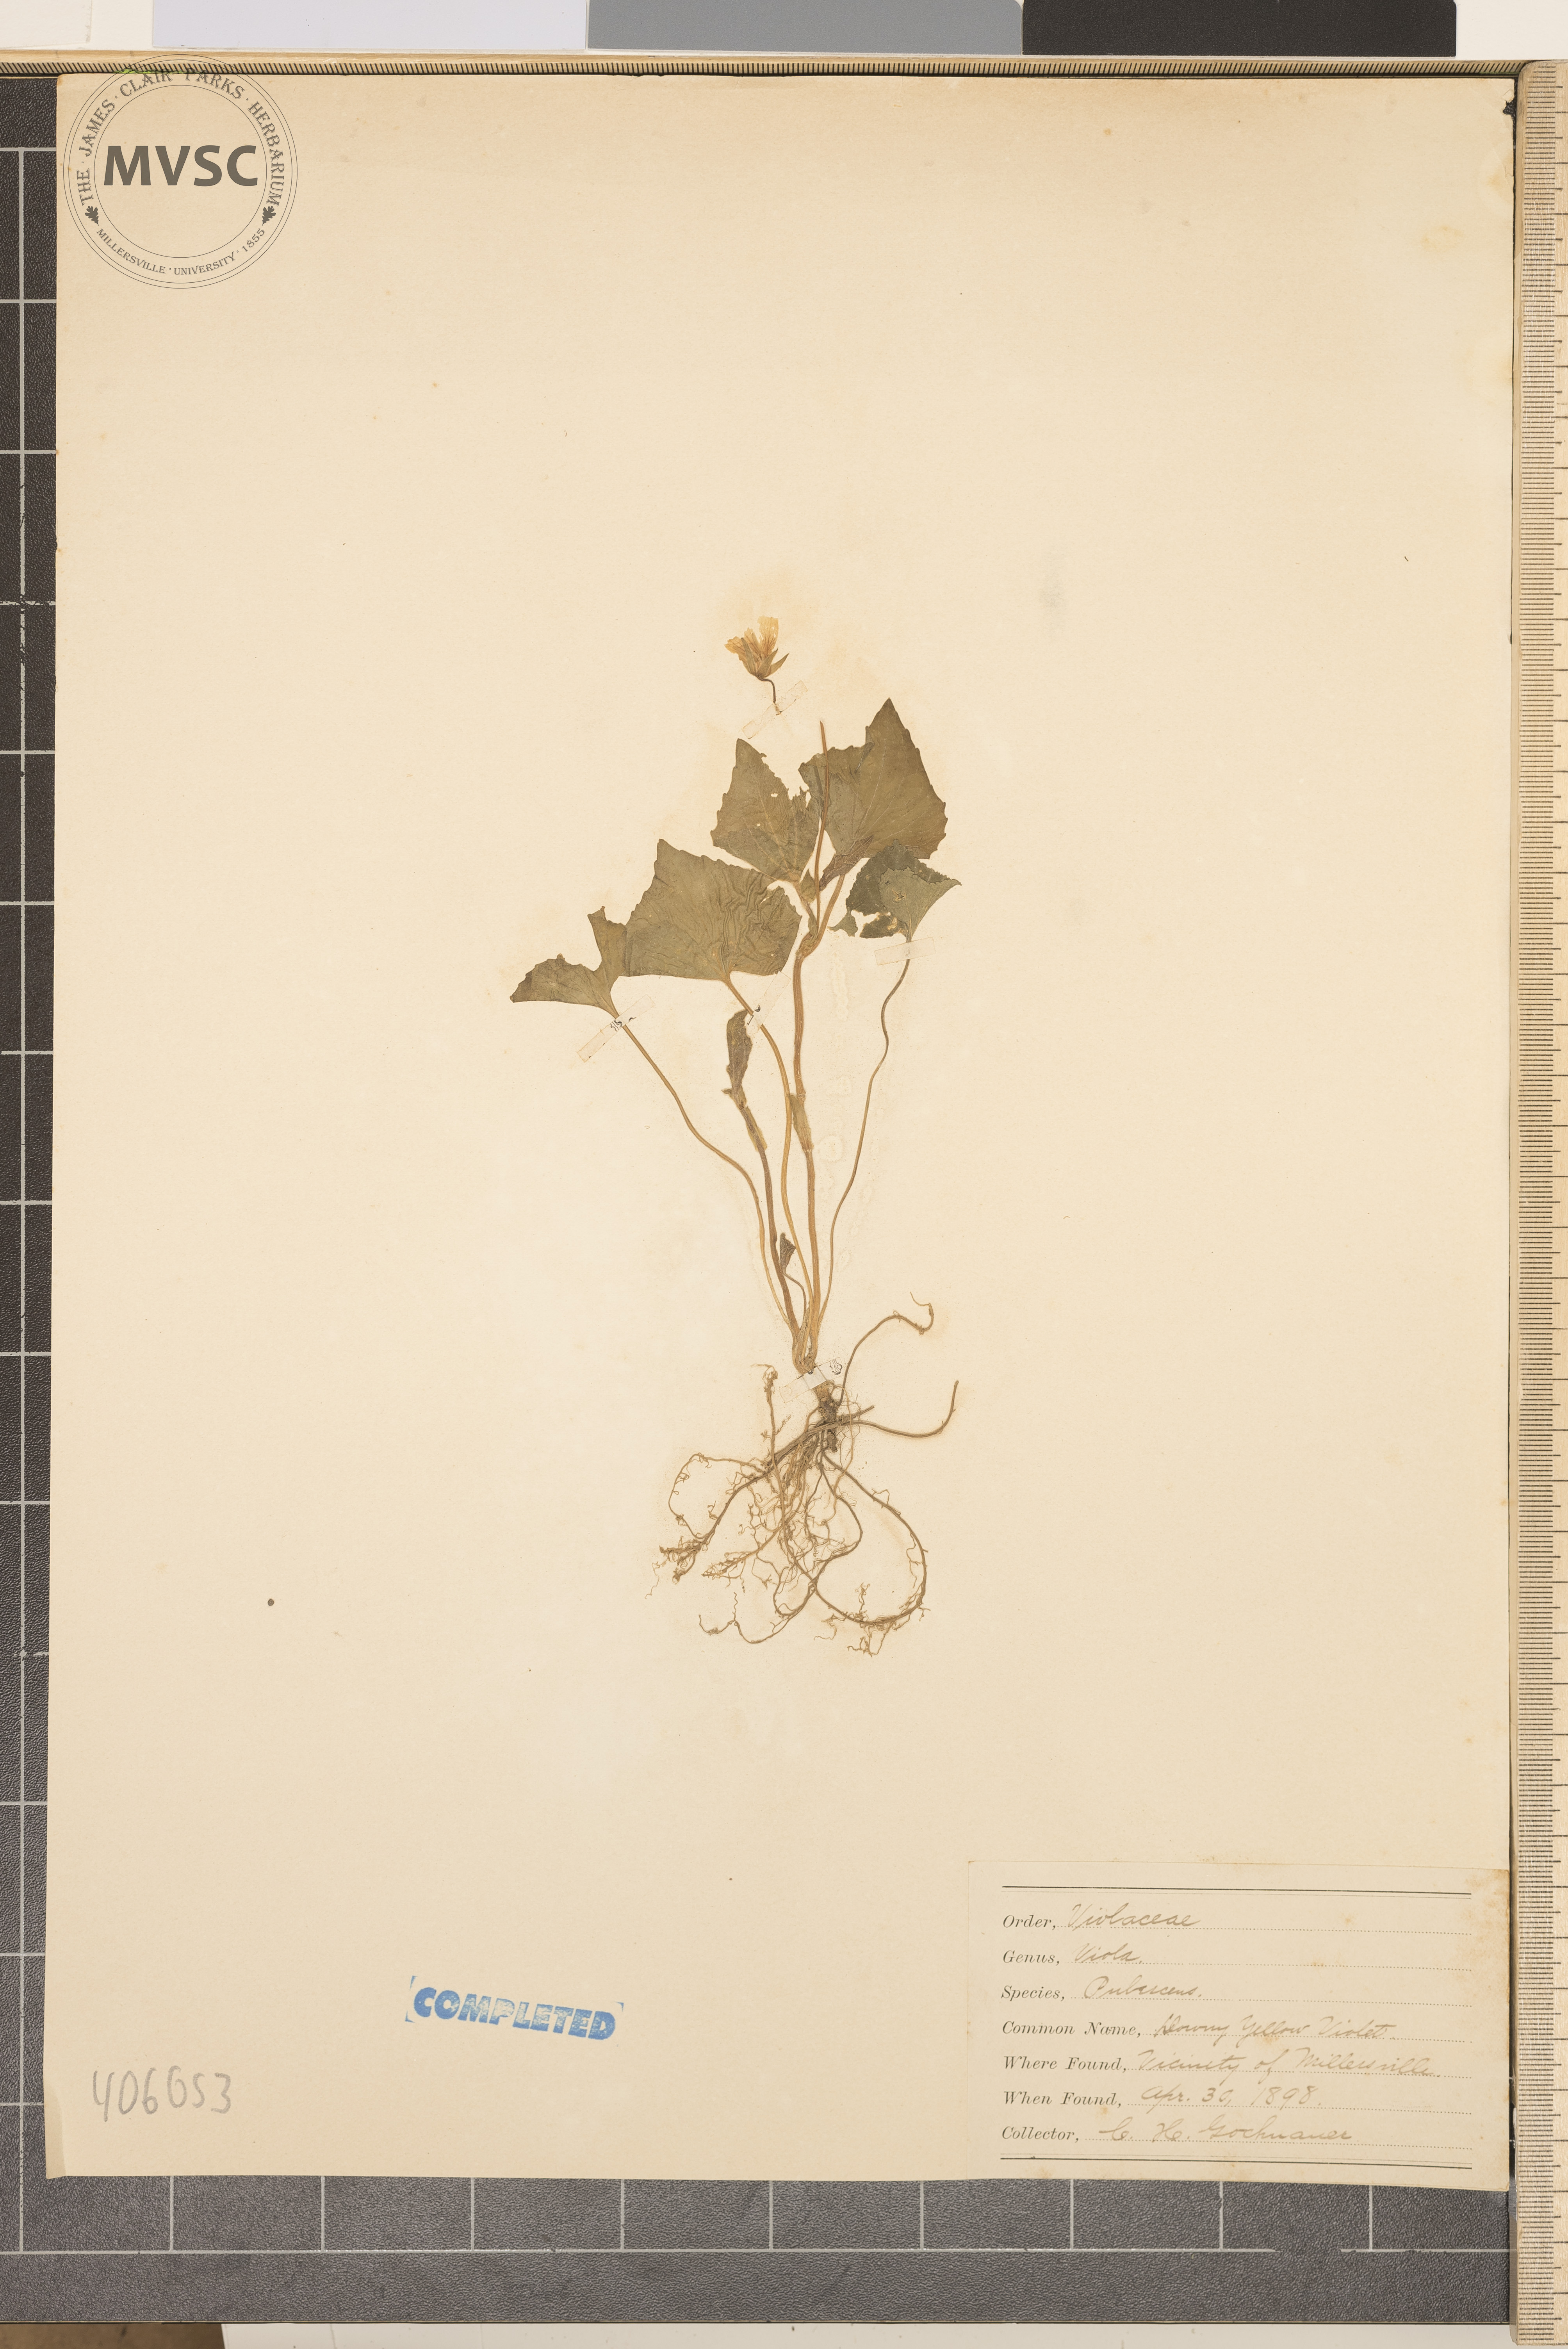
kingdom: Plantae
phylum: Tracheophyta
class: Magnoliopsida
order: Malpighiales
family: Violaceae
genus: Viola
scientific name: Viola pubescens
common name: Yellow forest violet
